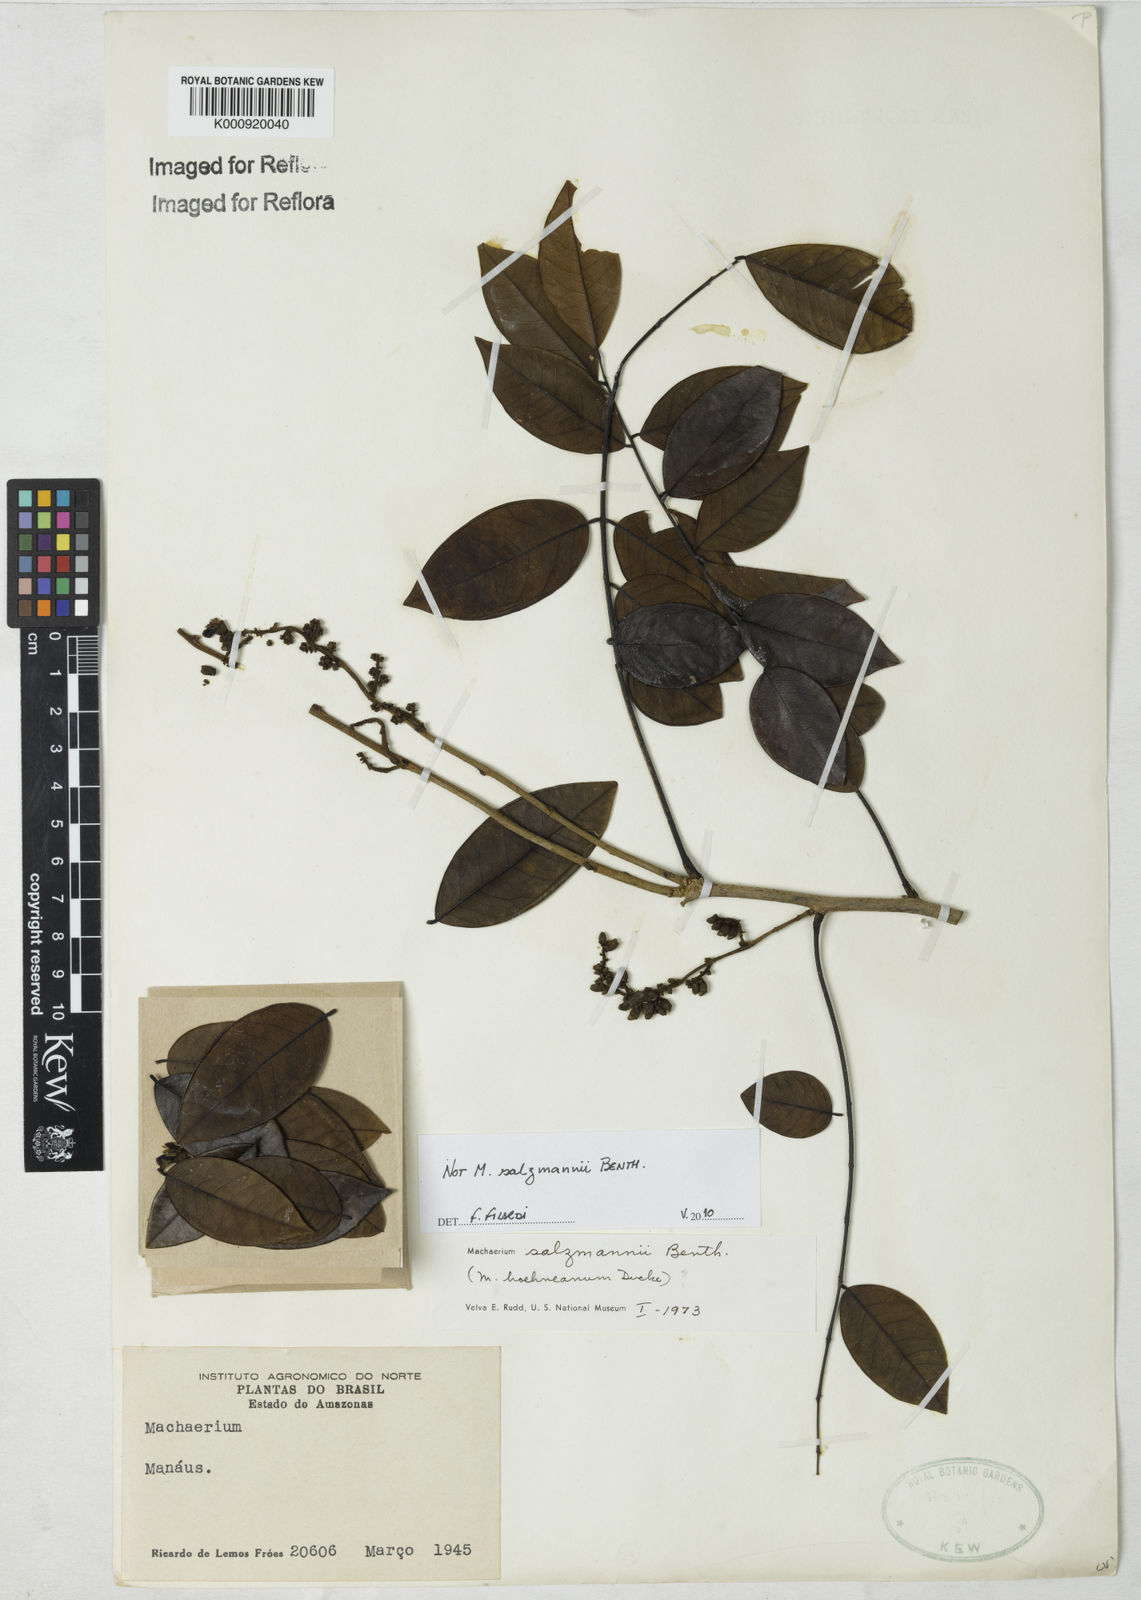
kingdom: Plantae
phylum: Tracheophyta
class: Magnoliopsida
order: Fabales
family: Fabaceae
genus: Machaerium
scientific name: Machaerium
